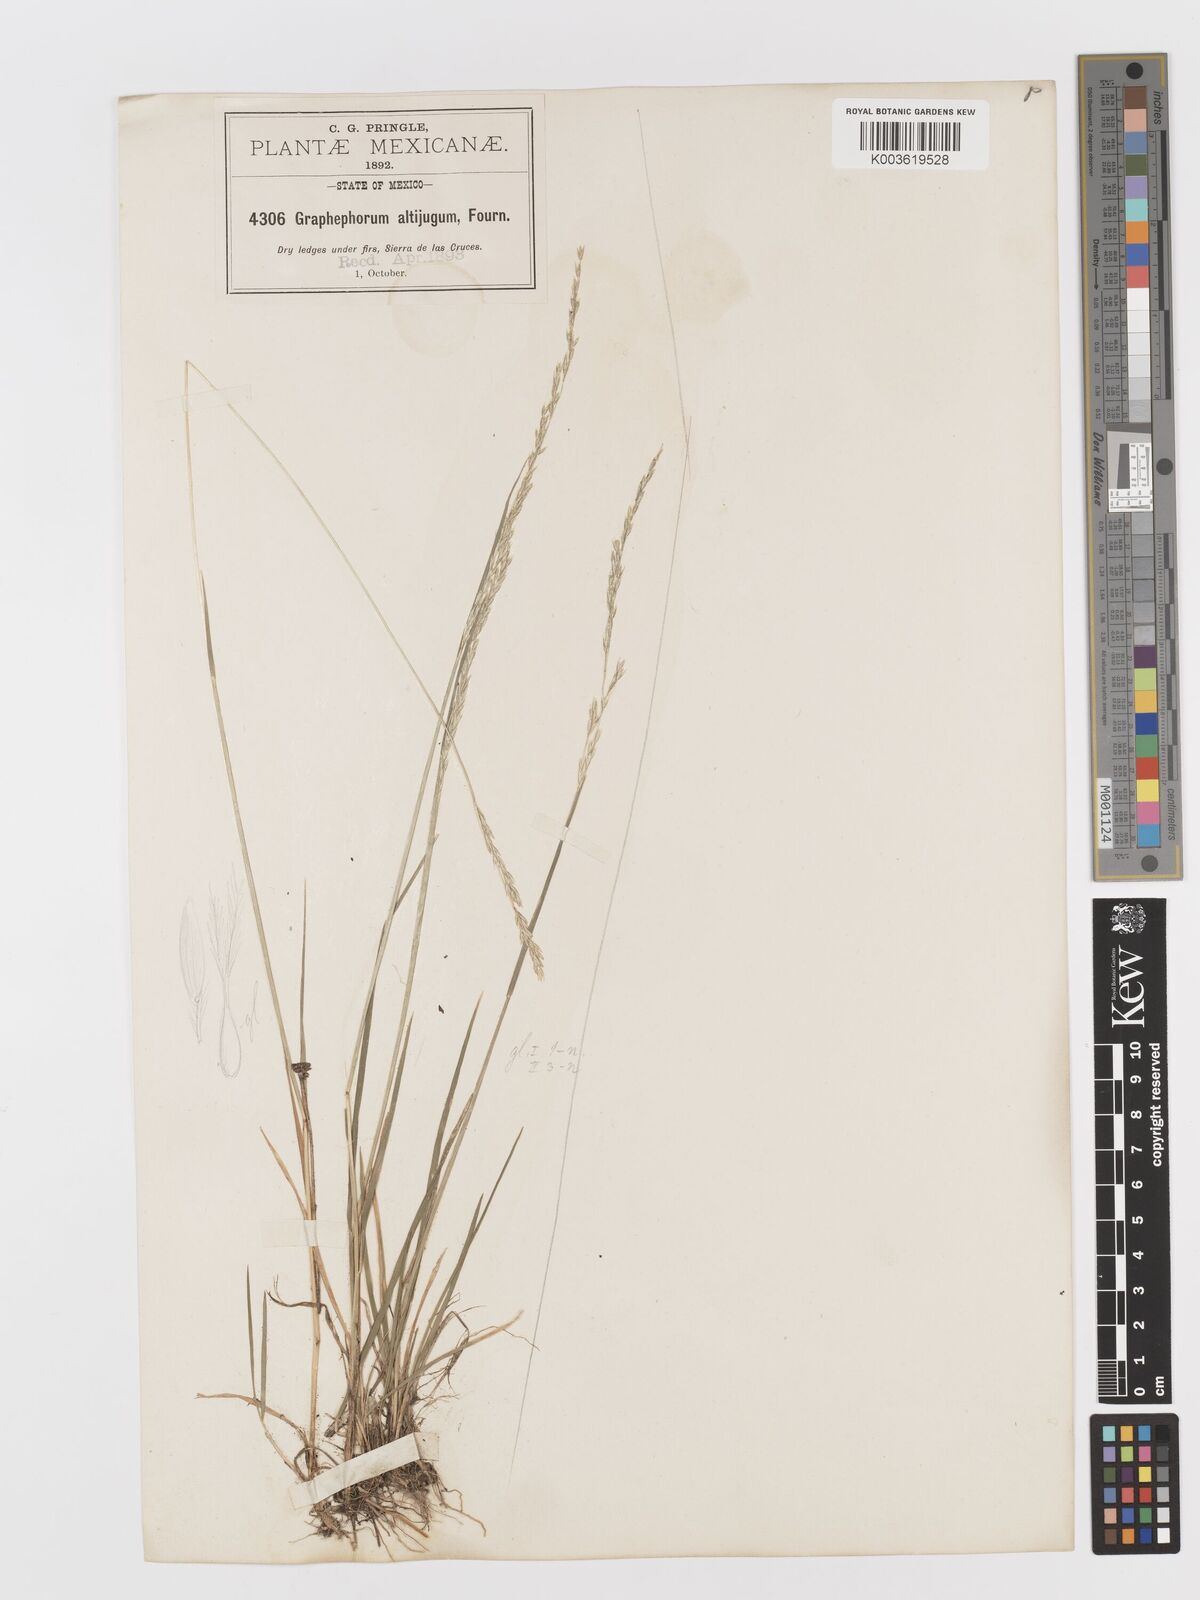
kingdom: Plantae
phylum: Tracheophyta
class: Liliopsida
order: Poales
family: Poaceae
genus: Peyritschia
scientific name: Peyritschia koelerioides
